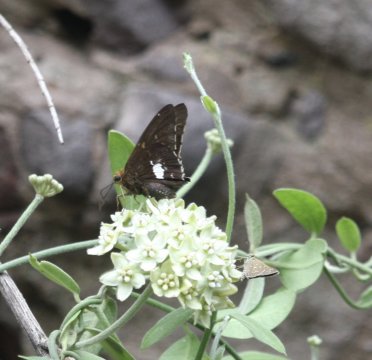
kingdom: Animalia
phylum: Arthropoda
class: Insecta
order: Lepidoptera
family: Hesperiidae
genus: Epargyreus
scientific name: Epargyreus windi
